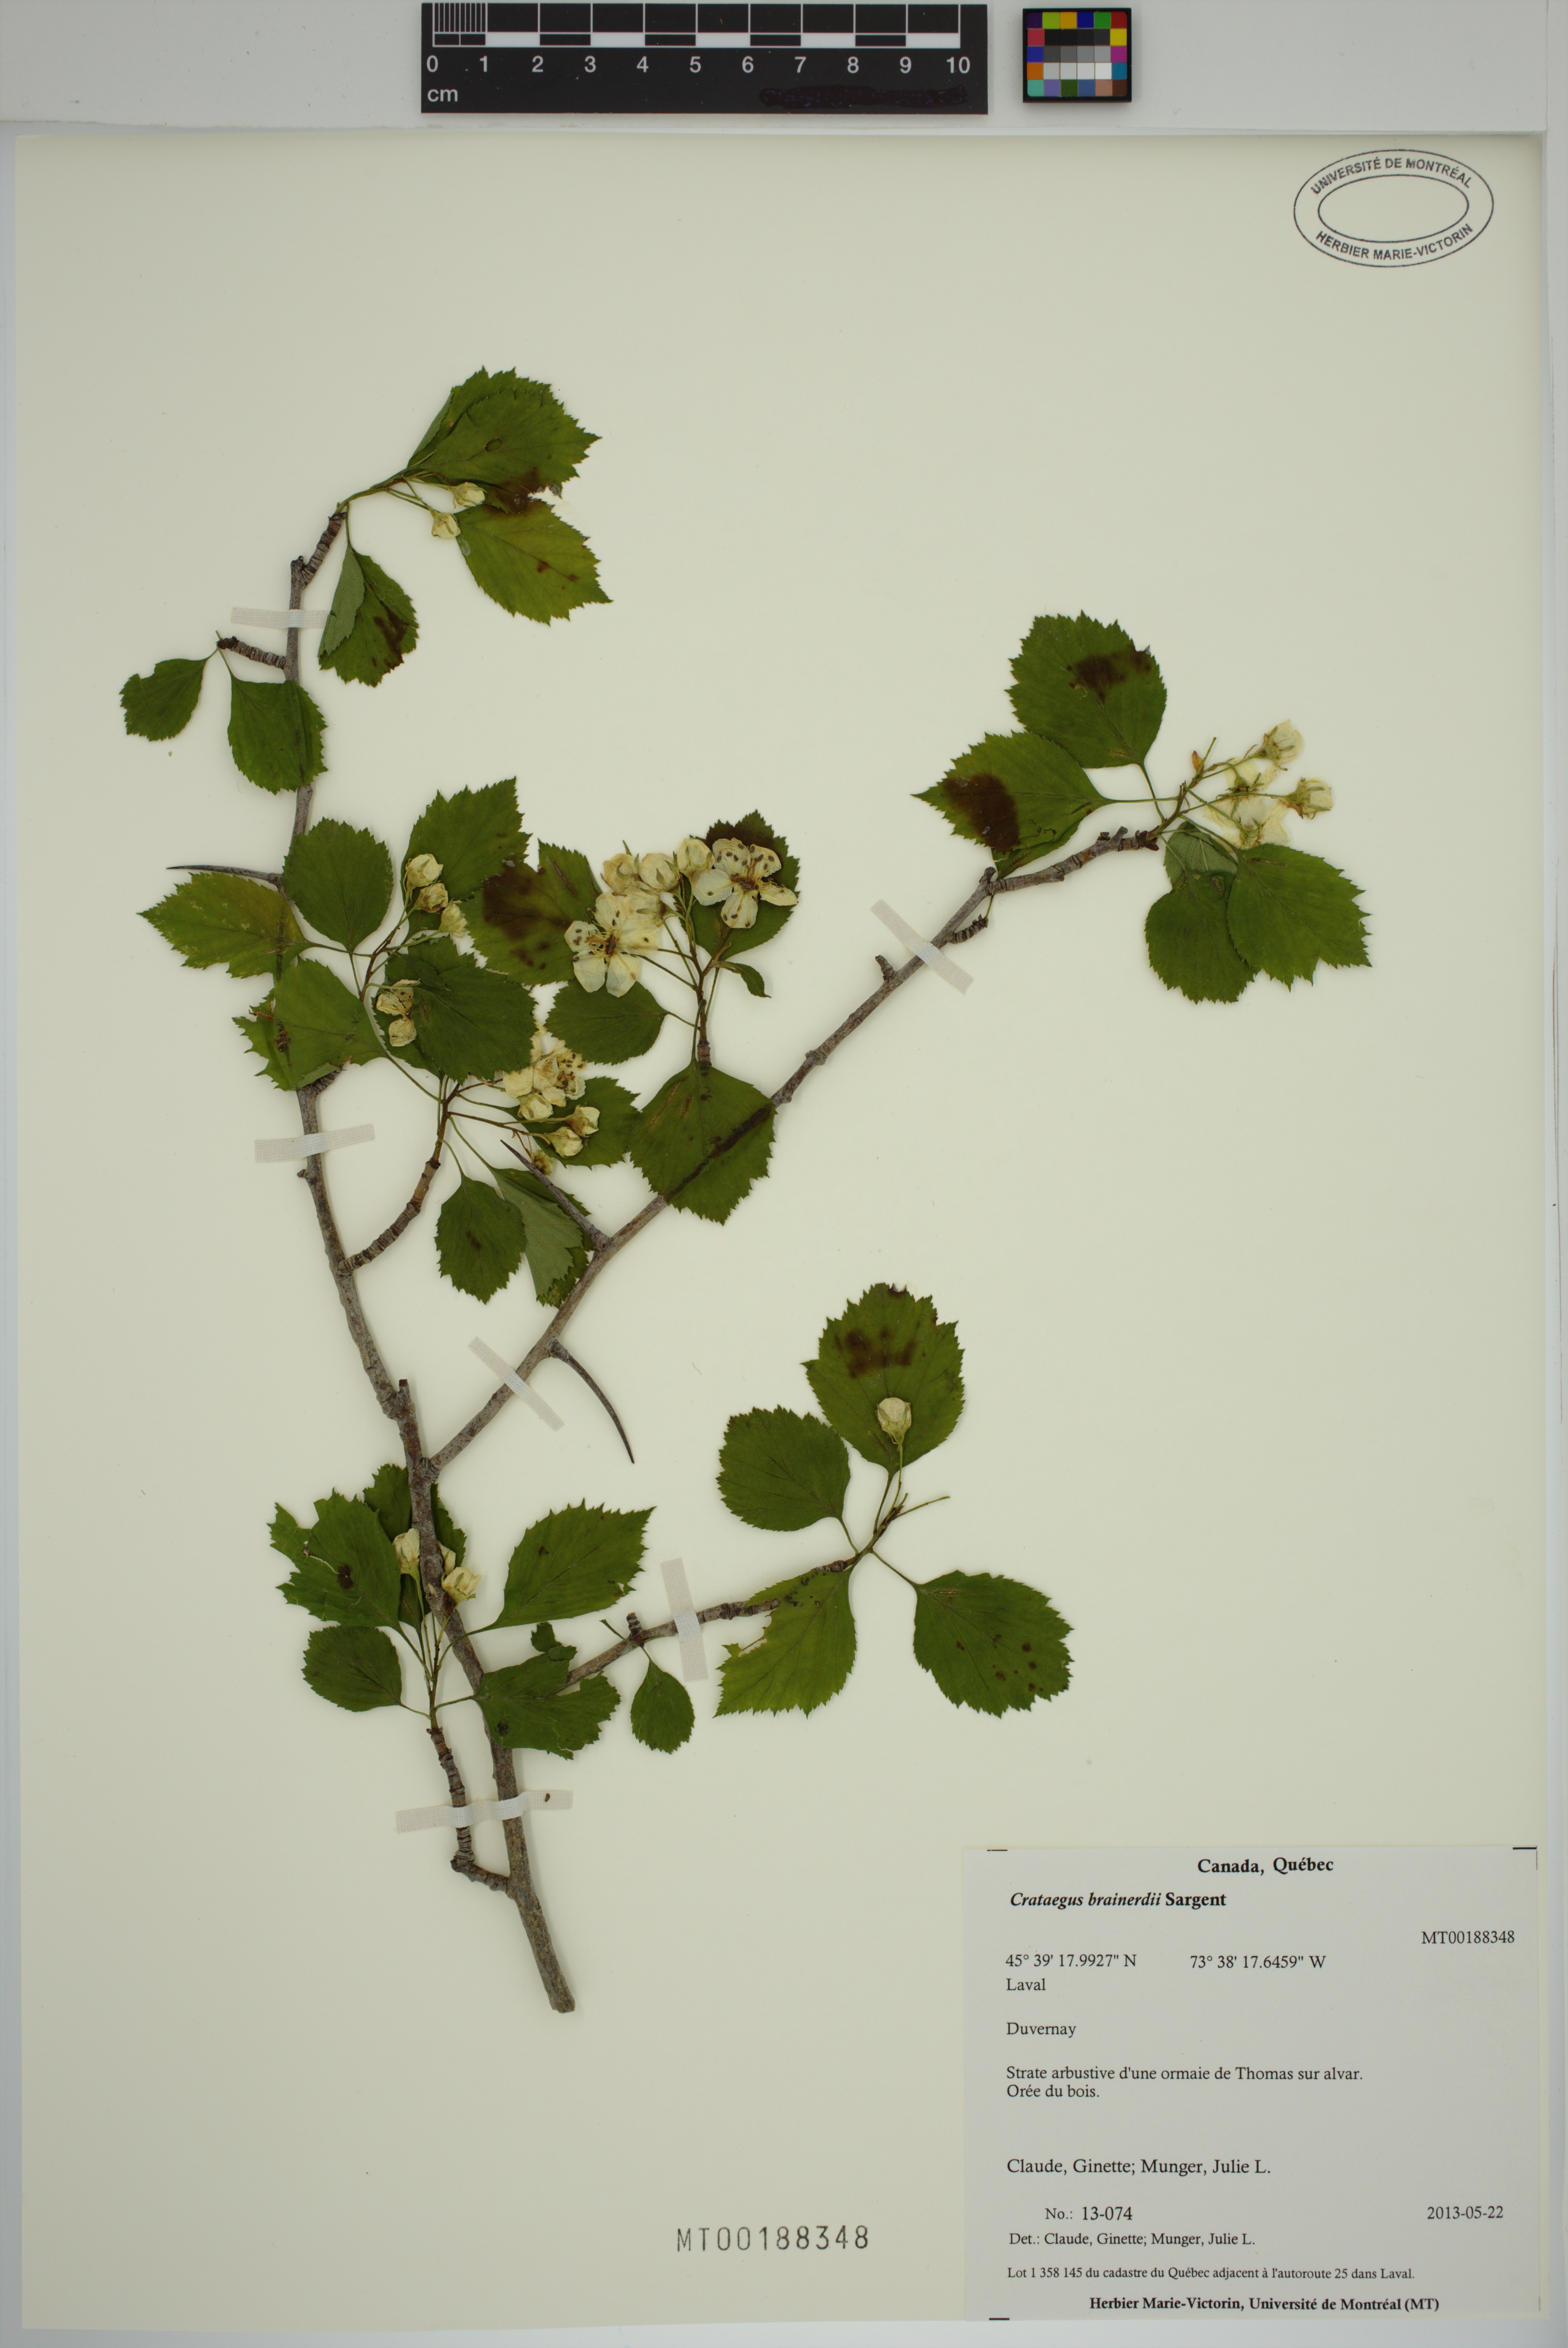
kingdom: Plantae
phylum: Tracheophyta
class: Magnoliopsida
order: Rosales
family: Rosaceae
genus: Crataegus
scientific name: Crataegus suborbiculata
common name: Caughnawaga hawthorn
